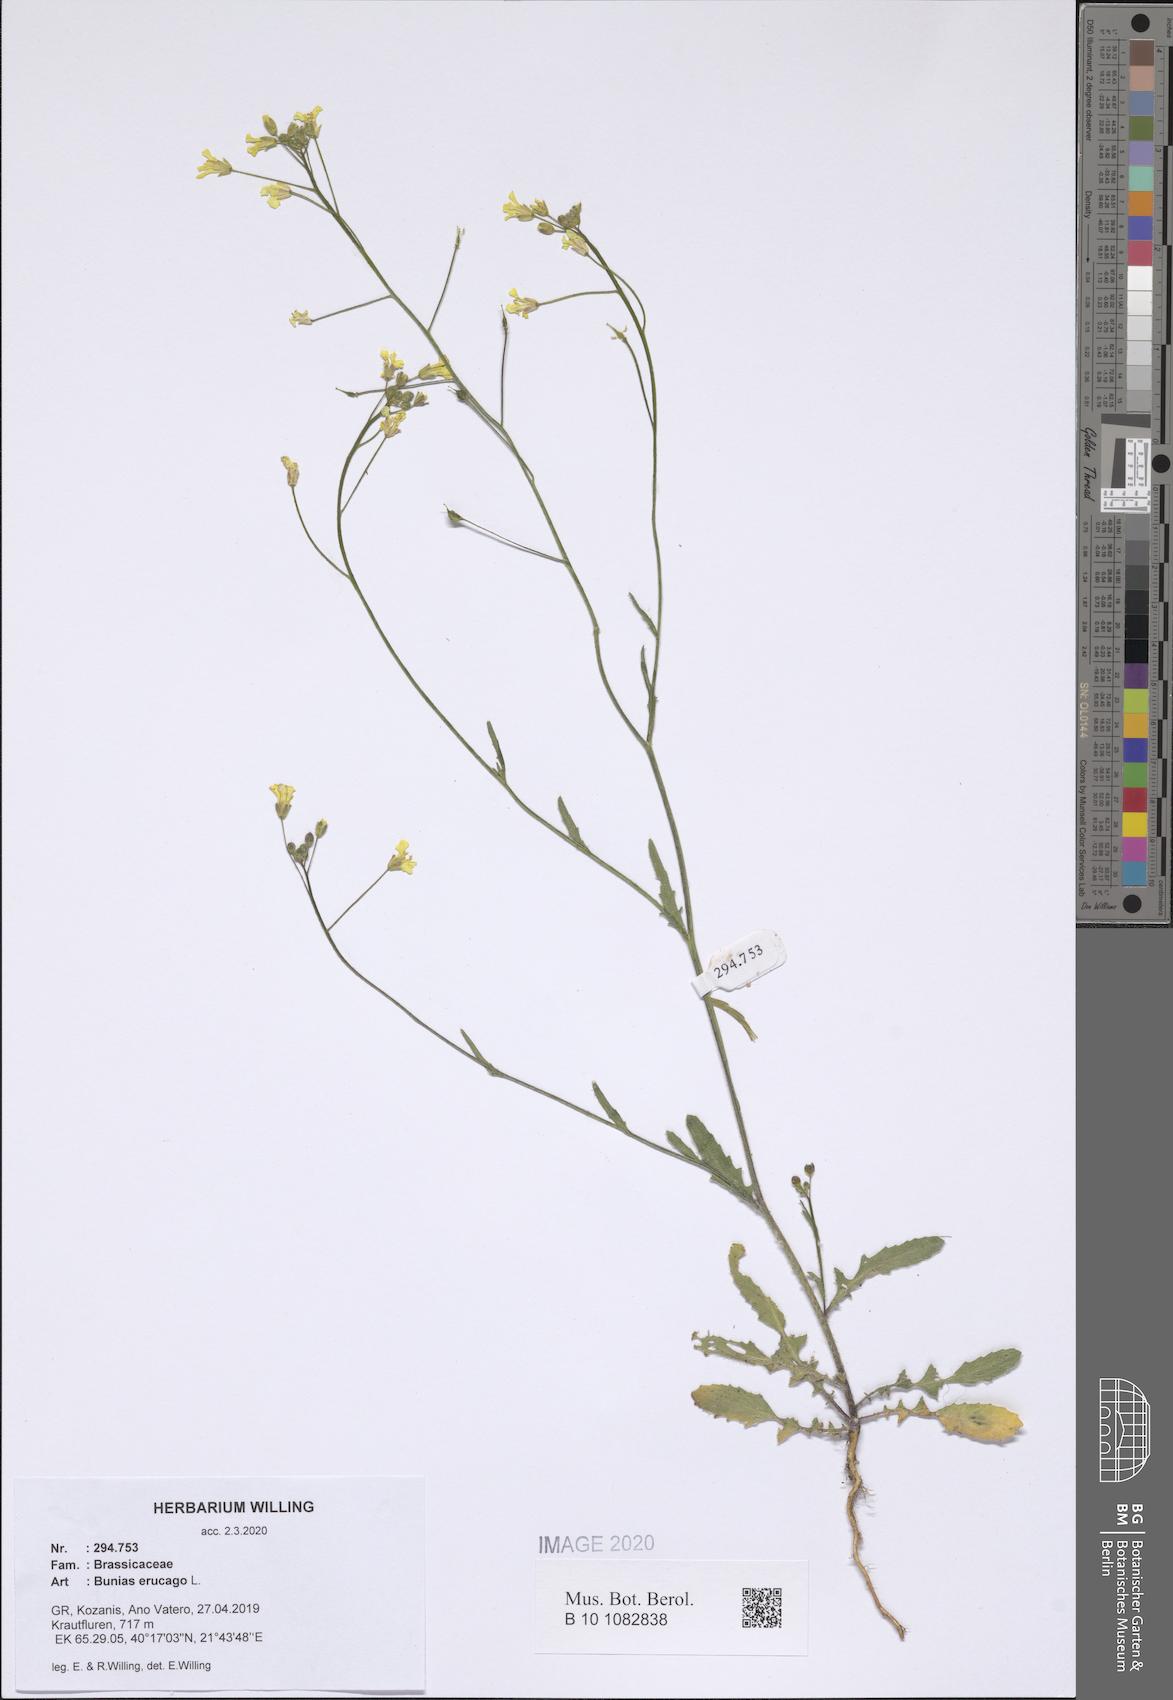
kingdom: Plantae
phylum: Tracheophyta
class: Magnoliopsida
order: Brassicales
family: Brassicaceae
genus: Bunias
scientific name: Bunias erucago
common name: Southern warty-cabbage
